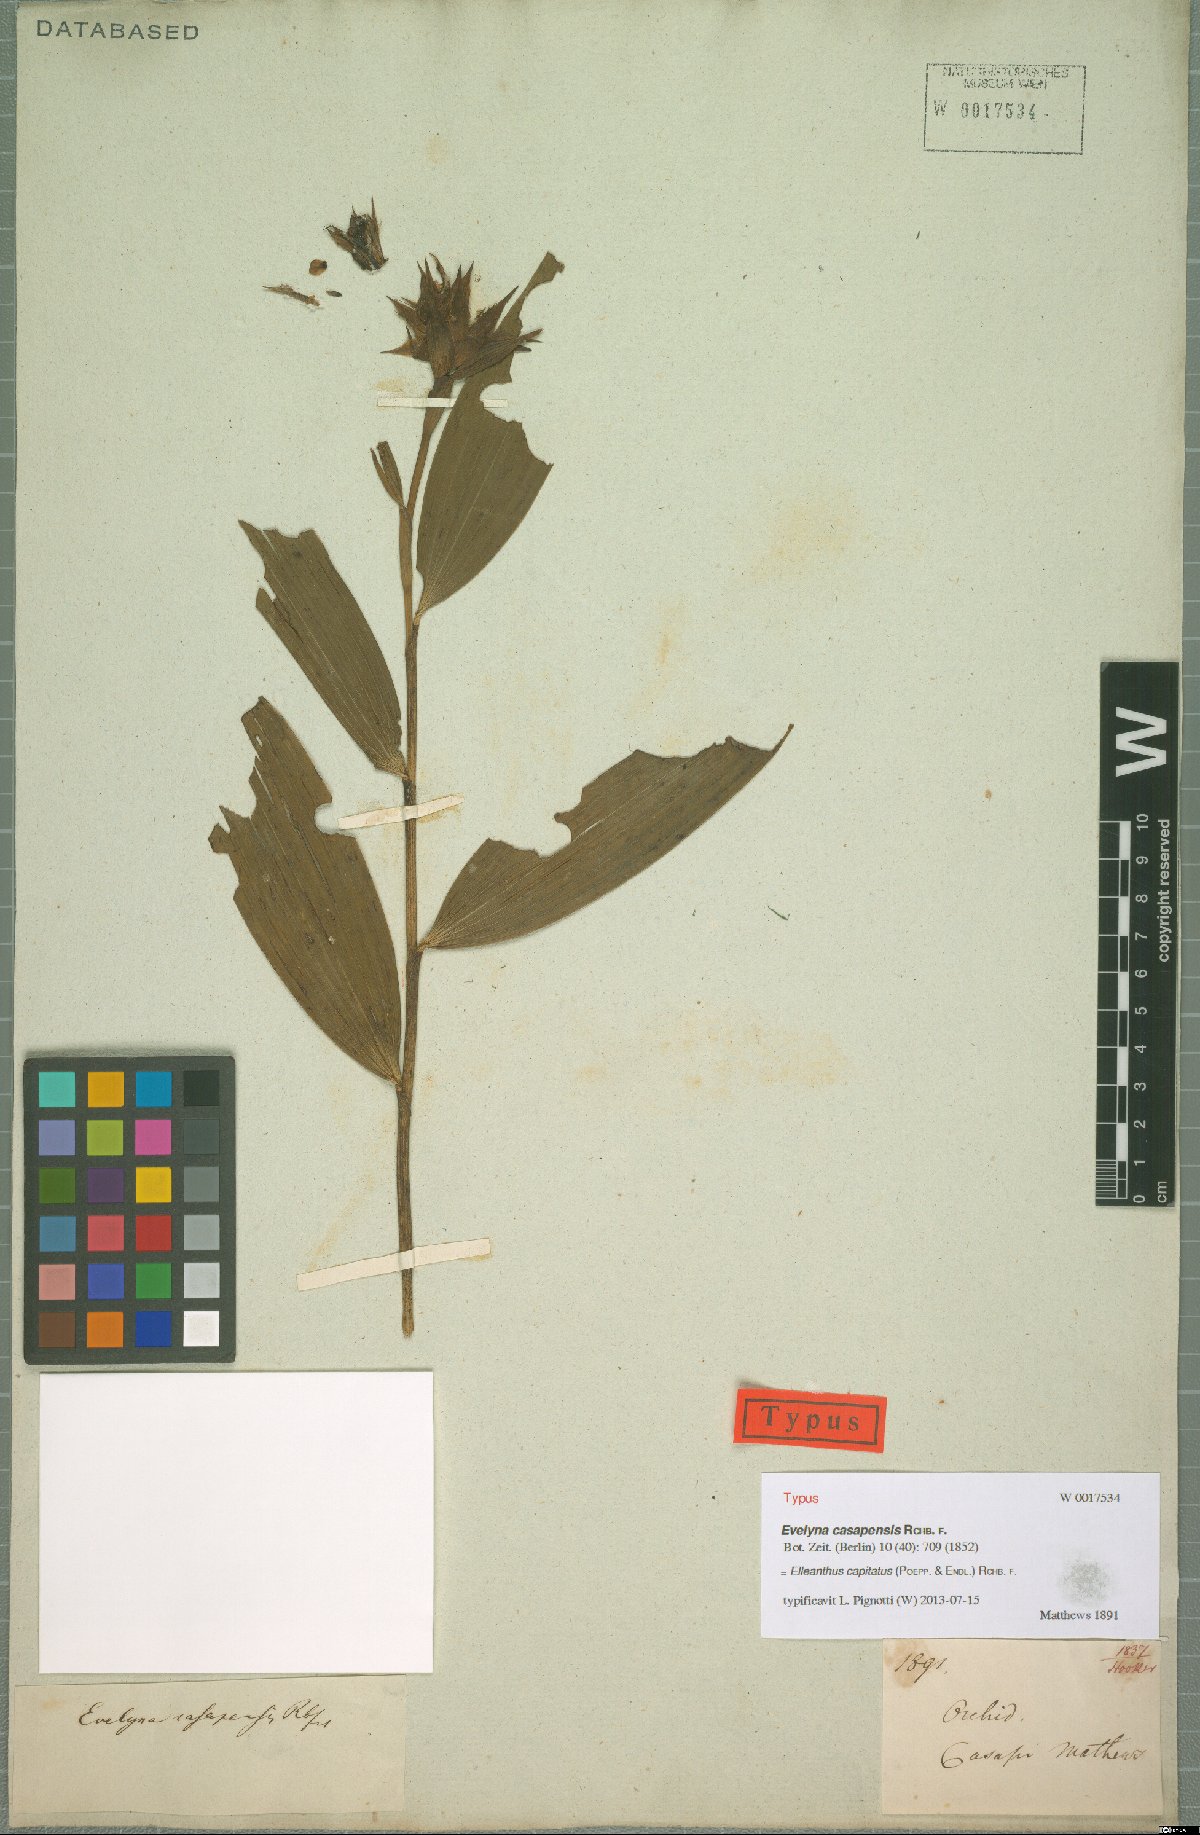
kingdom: Plantae
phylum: Tracheophyta
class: Liliopsida
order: Asparagales
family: Orchidaceae
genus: Elleanthus
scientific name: Elleanthus capitatus
